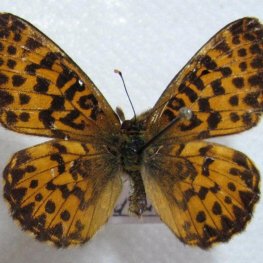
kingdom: Animalia
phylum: Arthropoda
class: Insecta
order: Lepidoptera
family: Nymphalidae
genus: Boloria
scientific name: Boloria chariclea
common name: Arctic Fritillary
